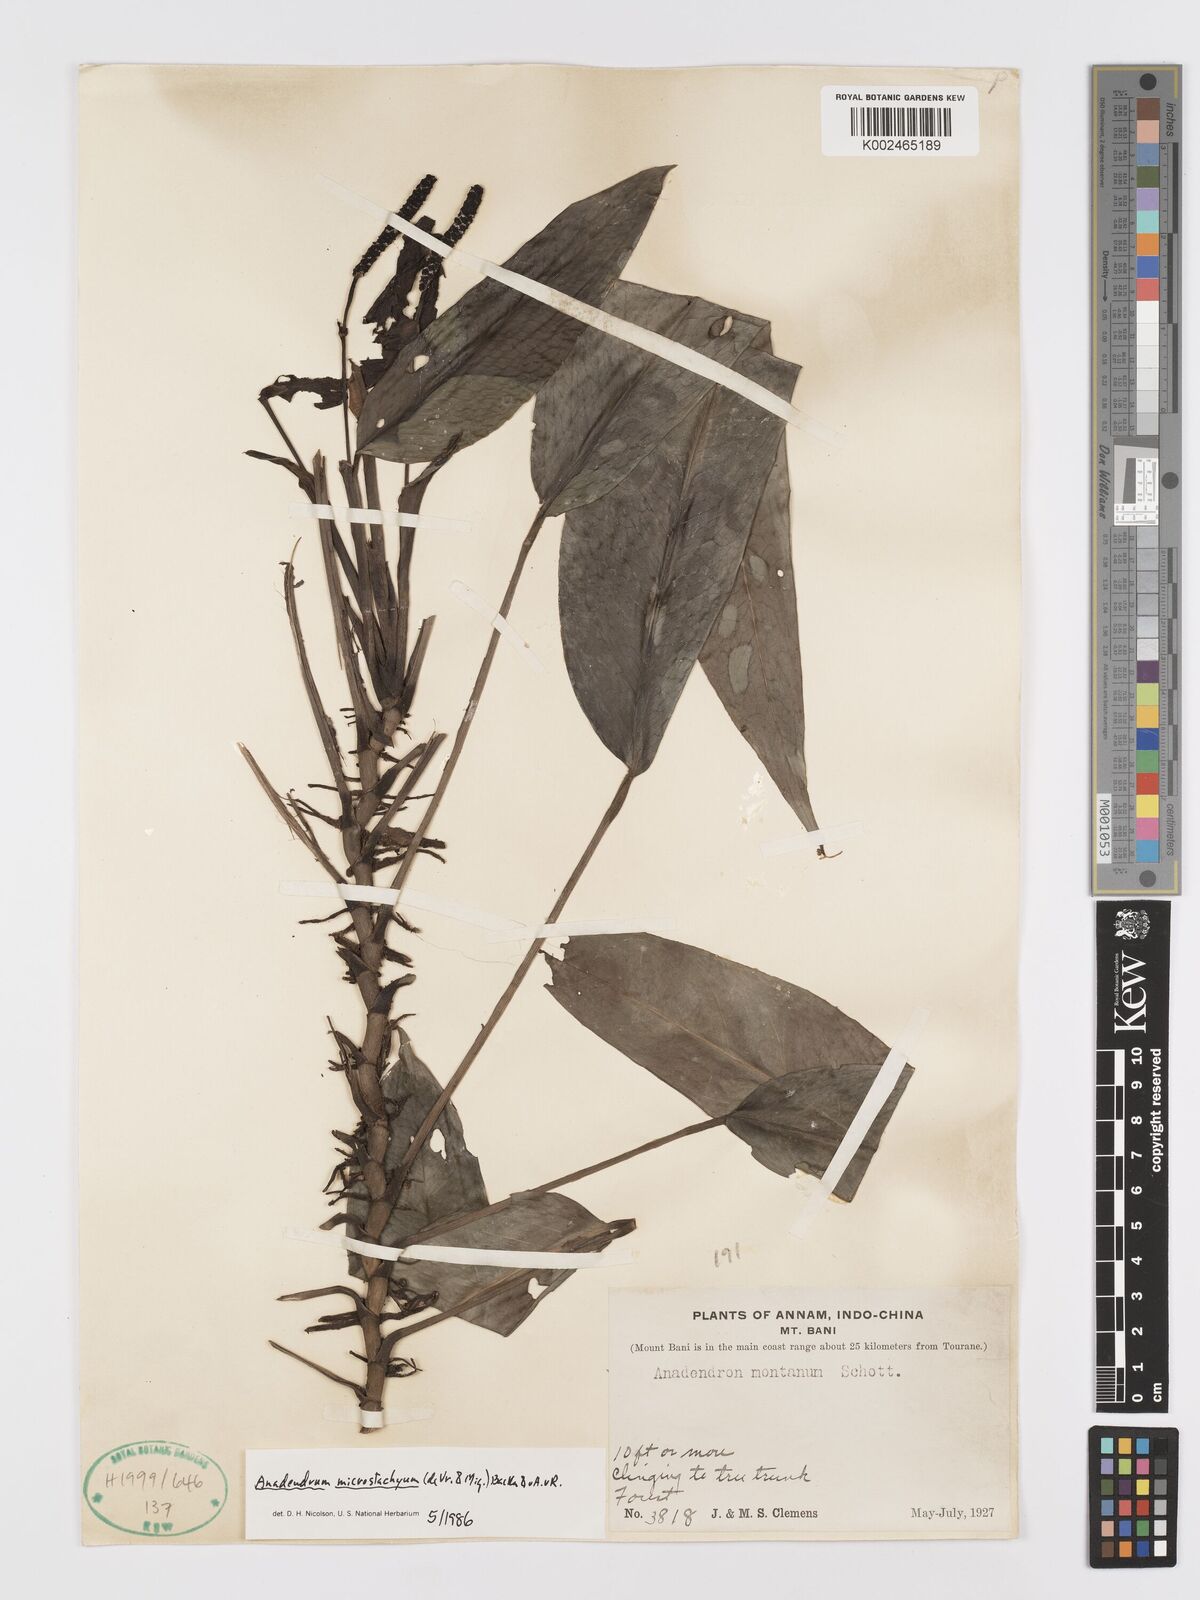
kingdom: Plantae
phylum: Tracheophyta
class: Liliopsida
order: Alismatales
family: Araceae
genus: Anadendrum
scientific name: Anadendrum microstachyum
